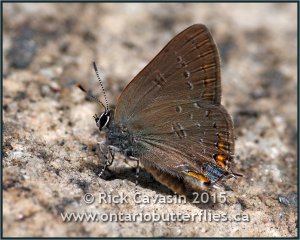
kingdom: Animalia
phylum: Arthropoda
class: Insecta
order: Lepidoptera
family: Lycaenidae
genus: Satyrium
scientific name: Satyrium edwardsii
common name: Edwards' Hairstreak
